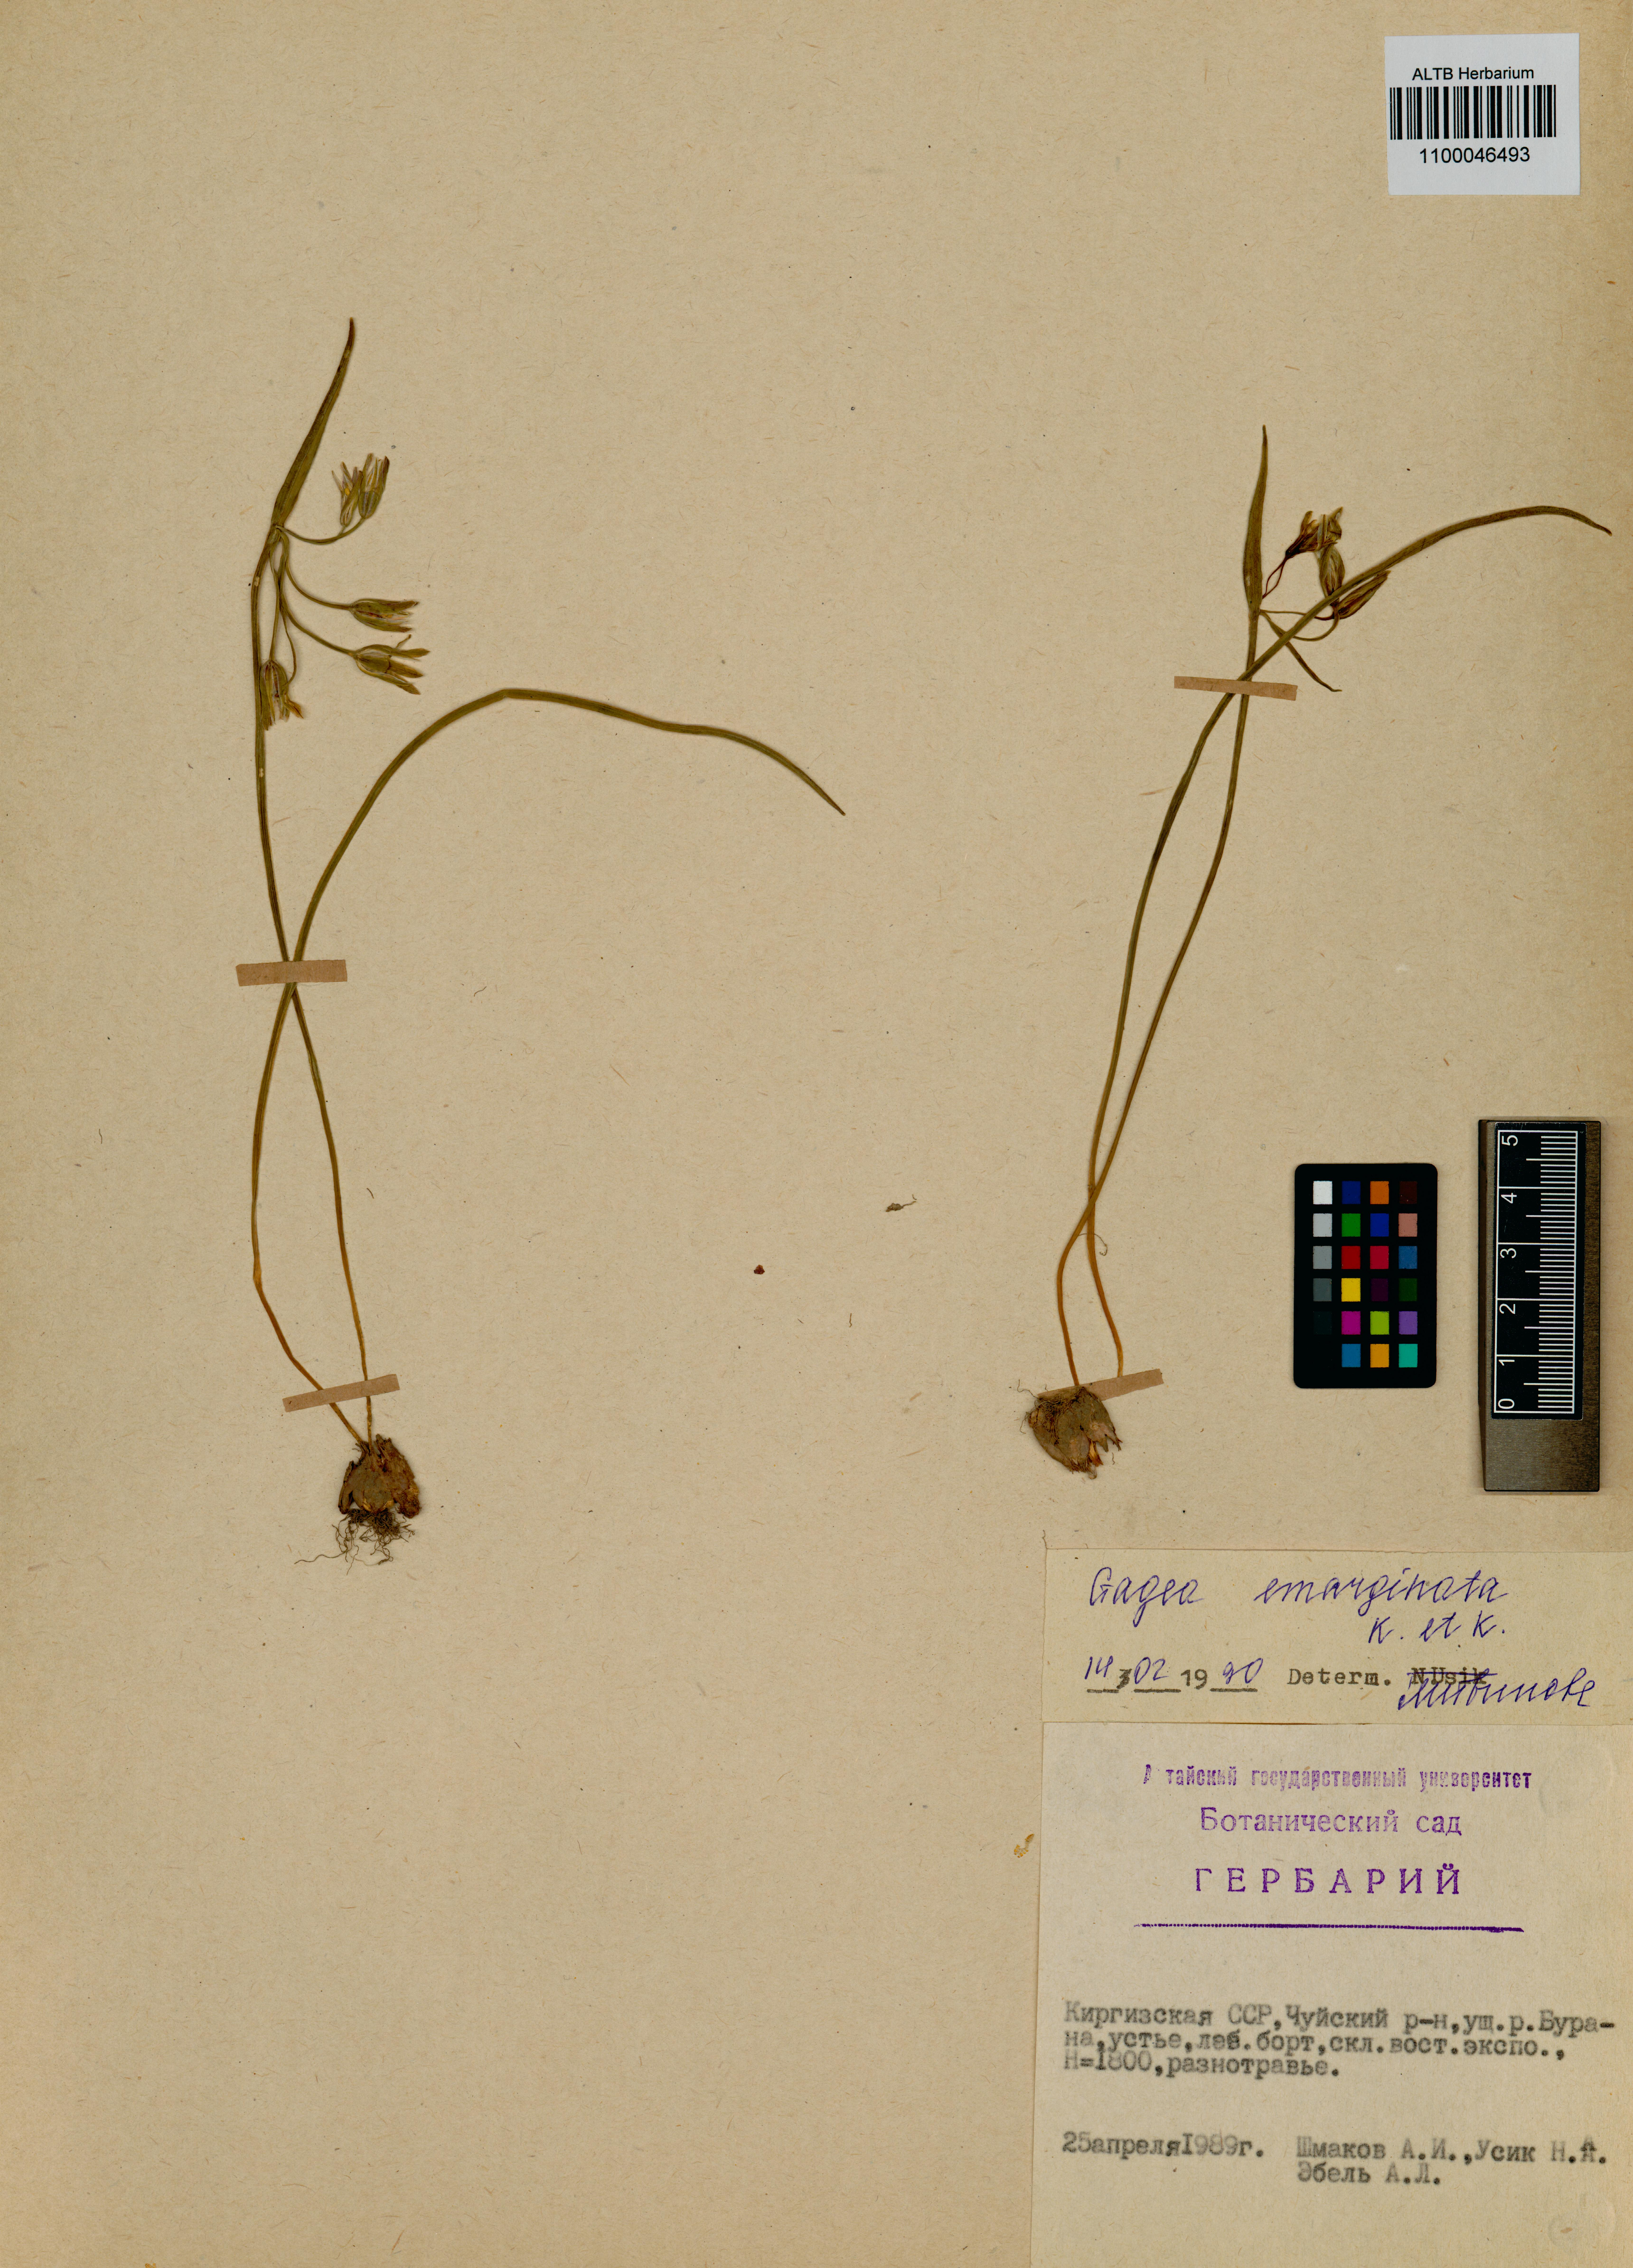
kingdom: Plantae
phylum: Tracheophyta
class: Liliopsida
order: Liliales
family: Liliaceae
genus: Gagea
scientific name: Gagea fragifera
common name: Lily
